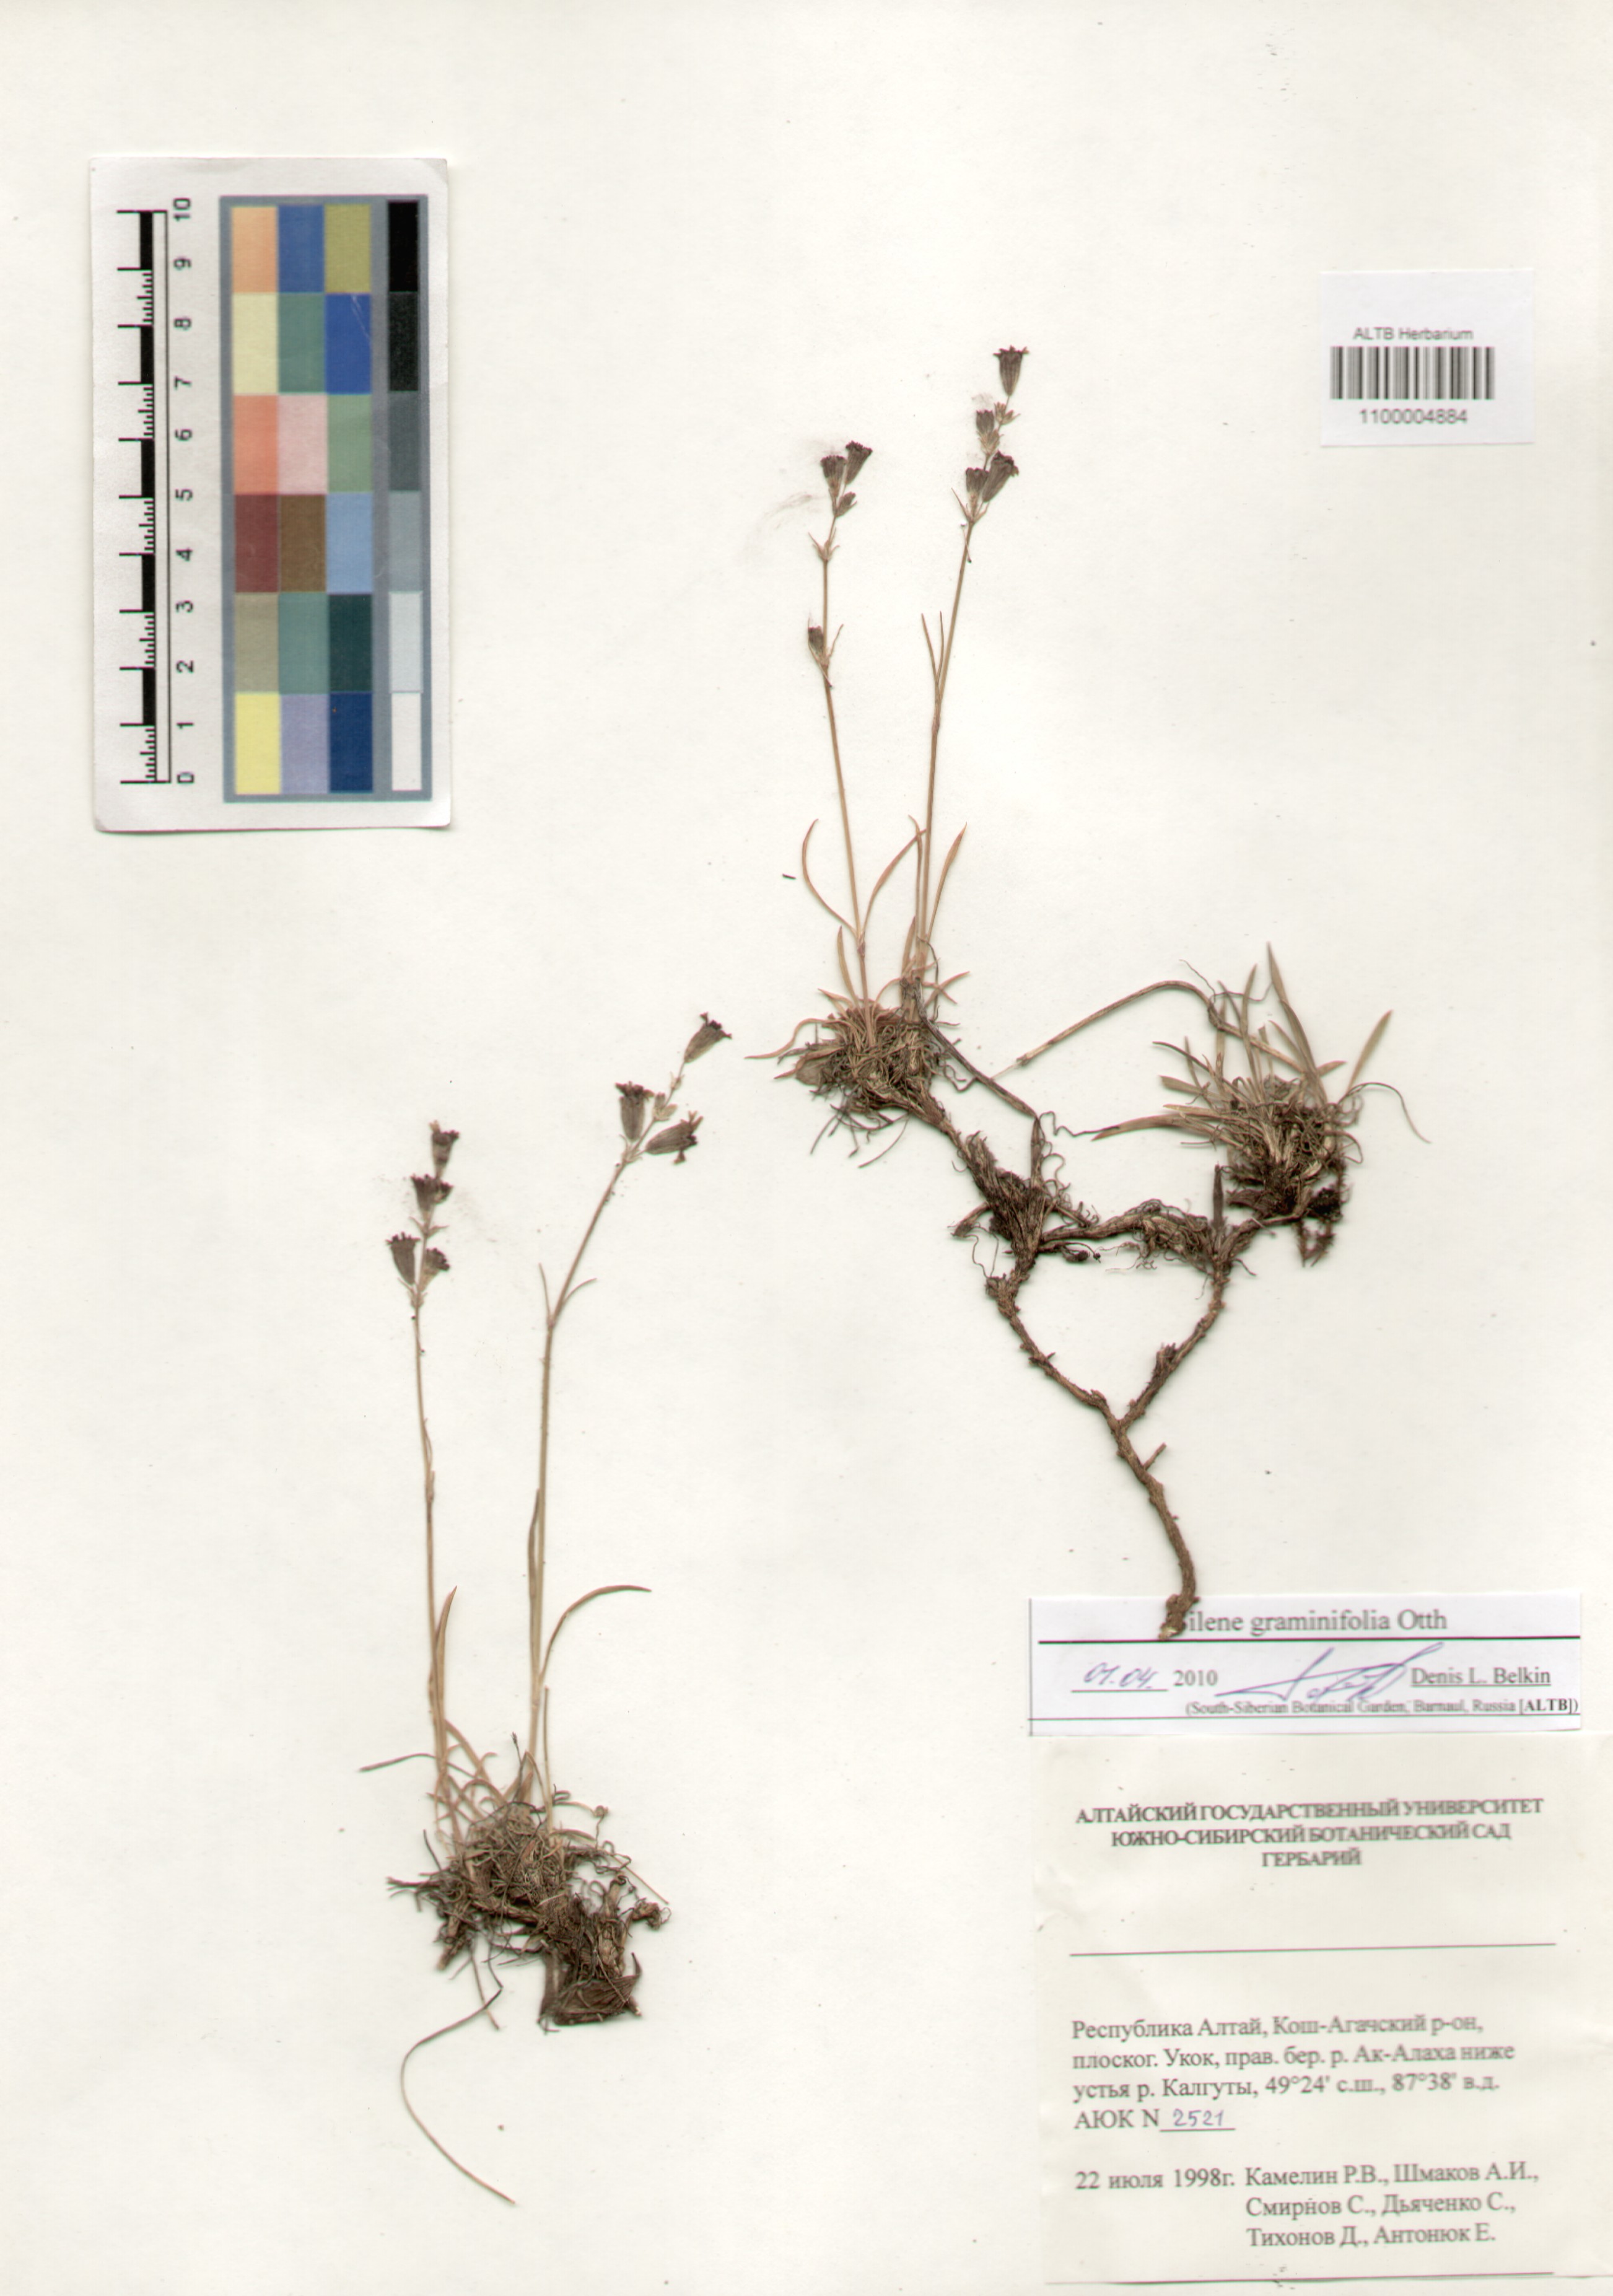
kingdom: Plantae
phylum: Tracheophyta
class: Magnoliopsida
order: Caryophyllales
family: Caryophyllaceae
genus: Silene
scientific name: Silene graminifolia
